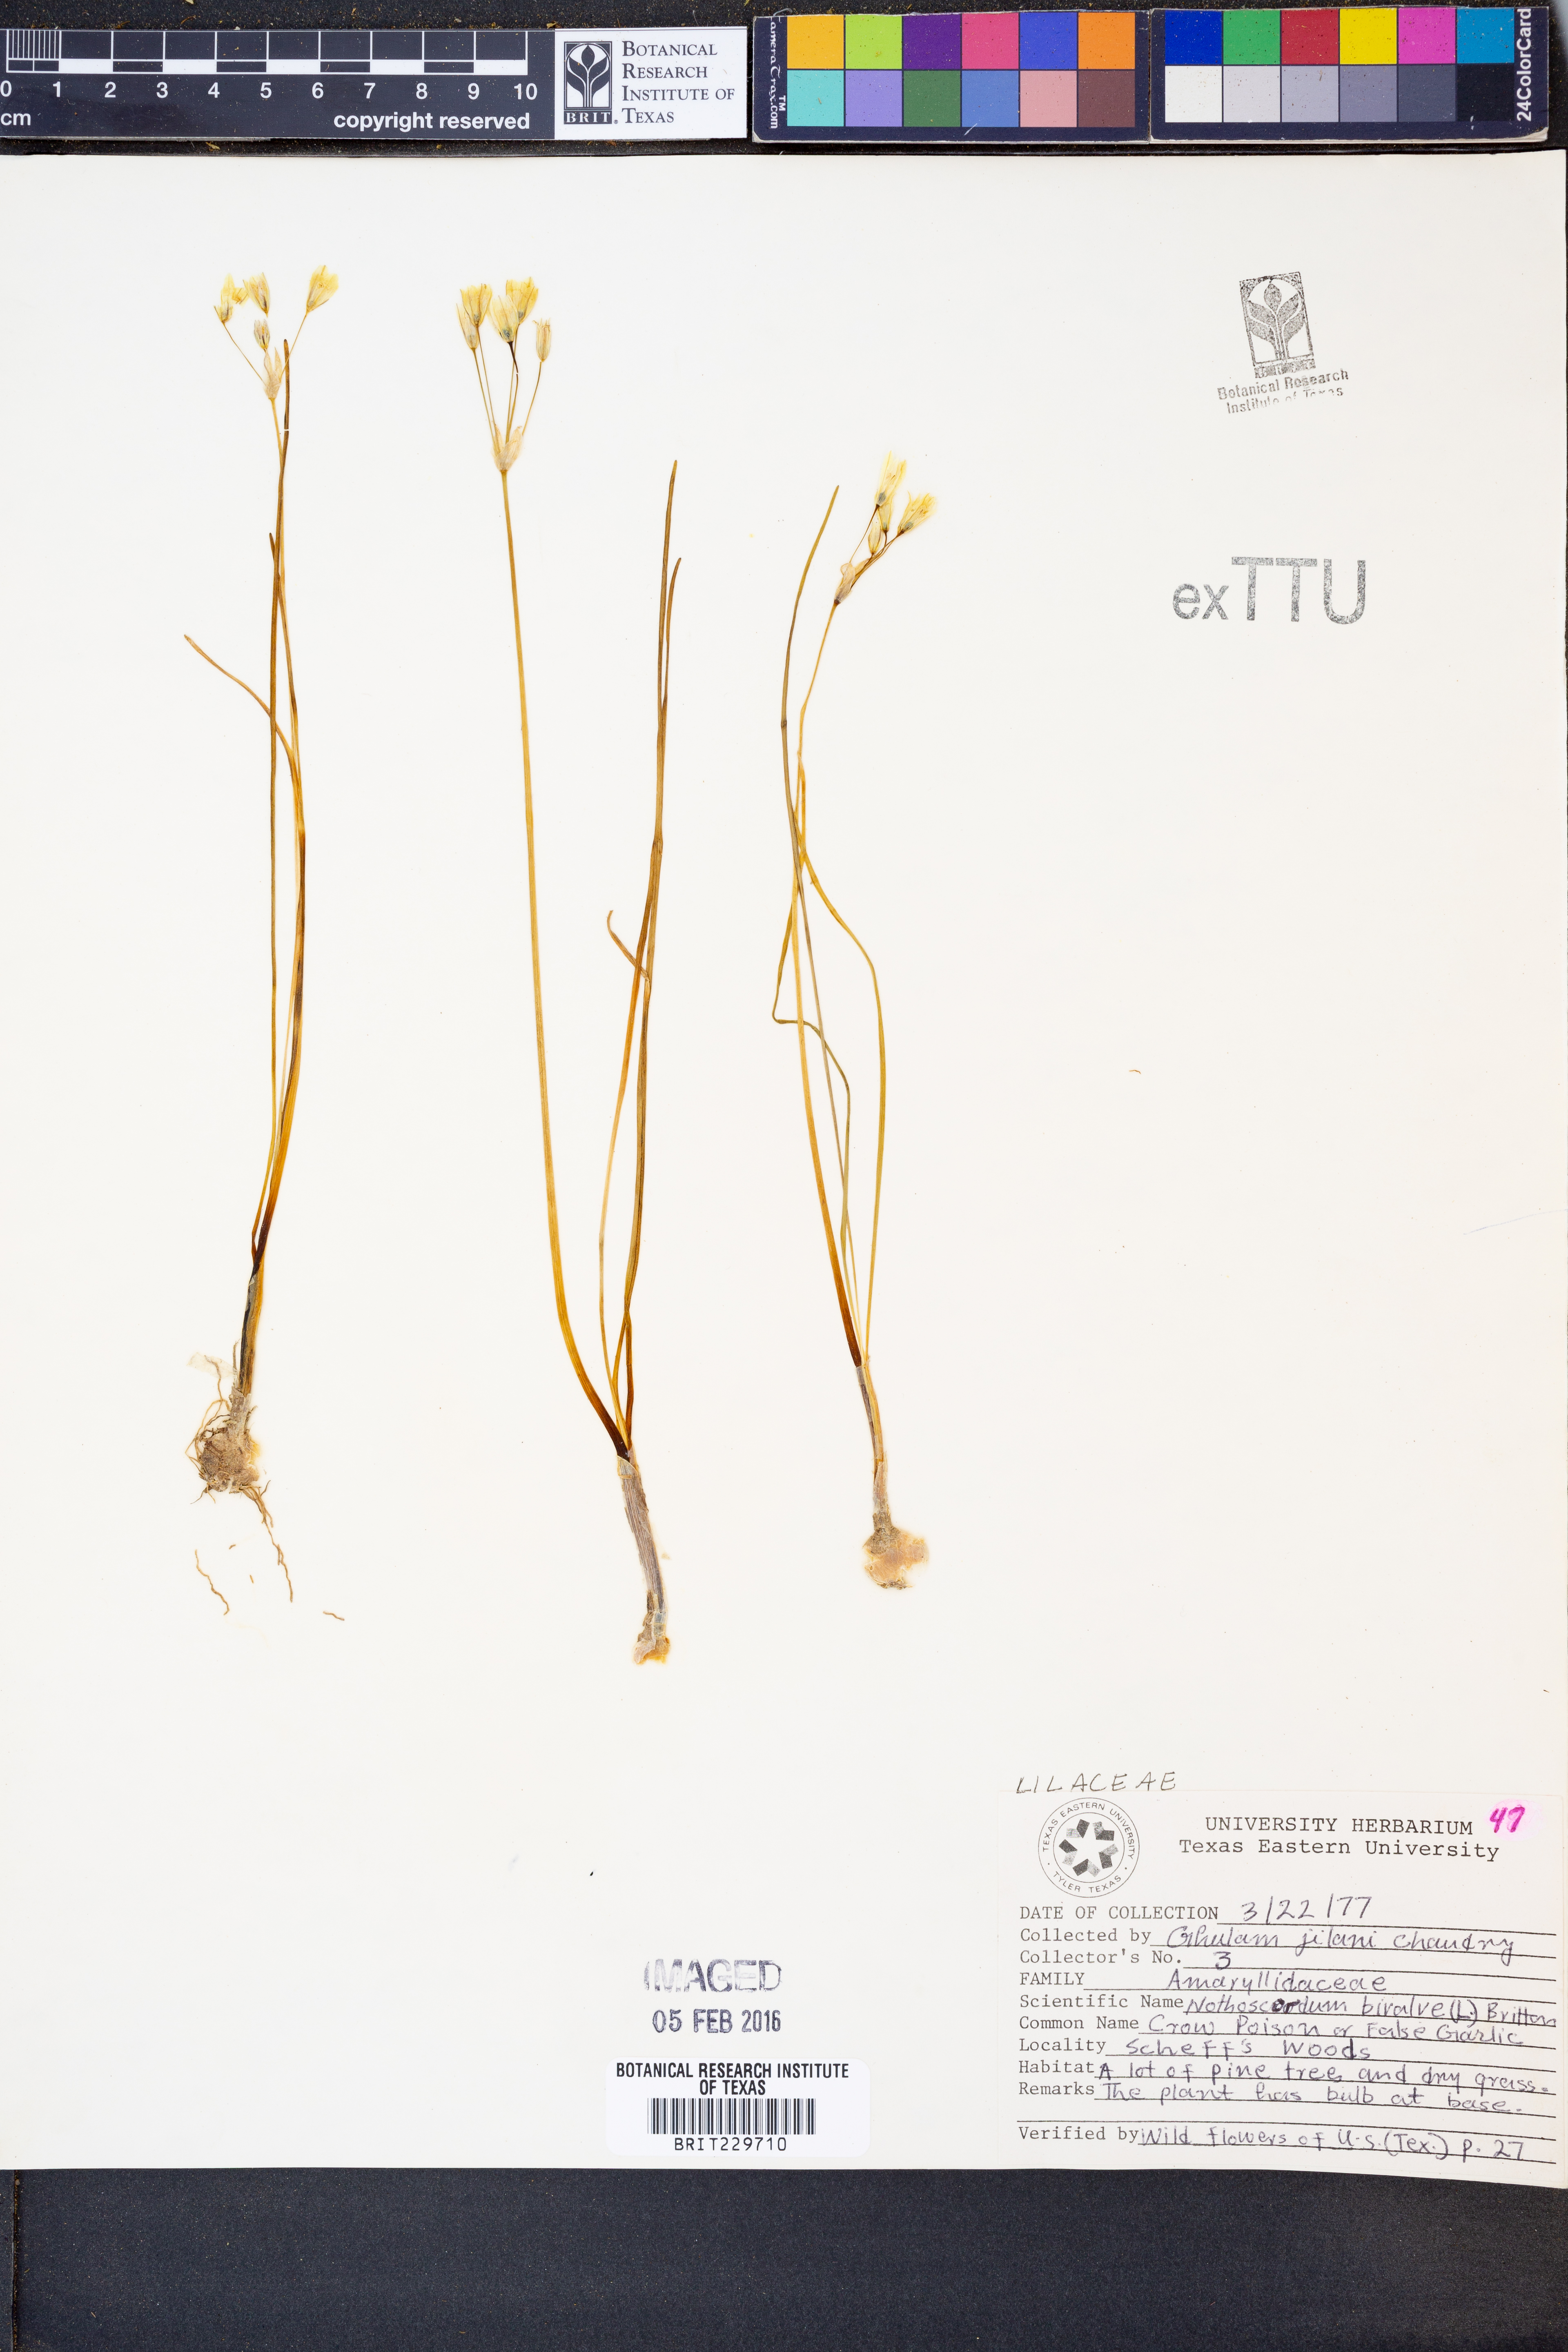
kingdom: Plantae
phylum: Tracheophyta
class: Liliopsida
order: Asparagales
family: Amaryllidaceae
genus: Nothoscordum
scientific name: Nothoscordum bivalve
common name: Crow-poison
